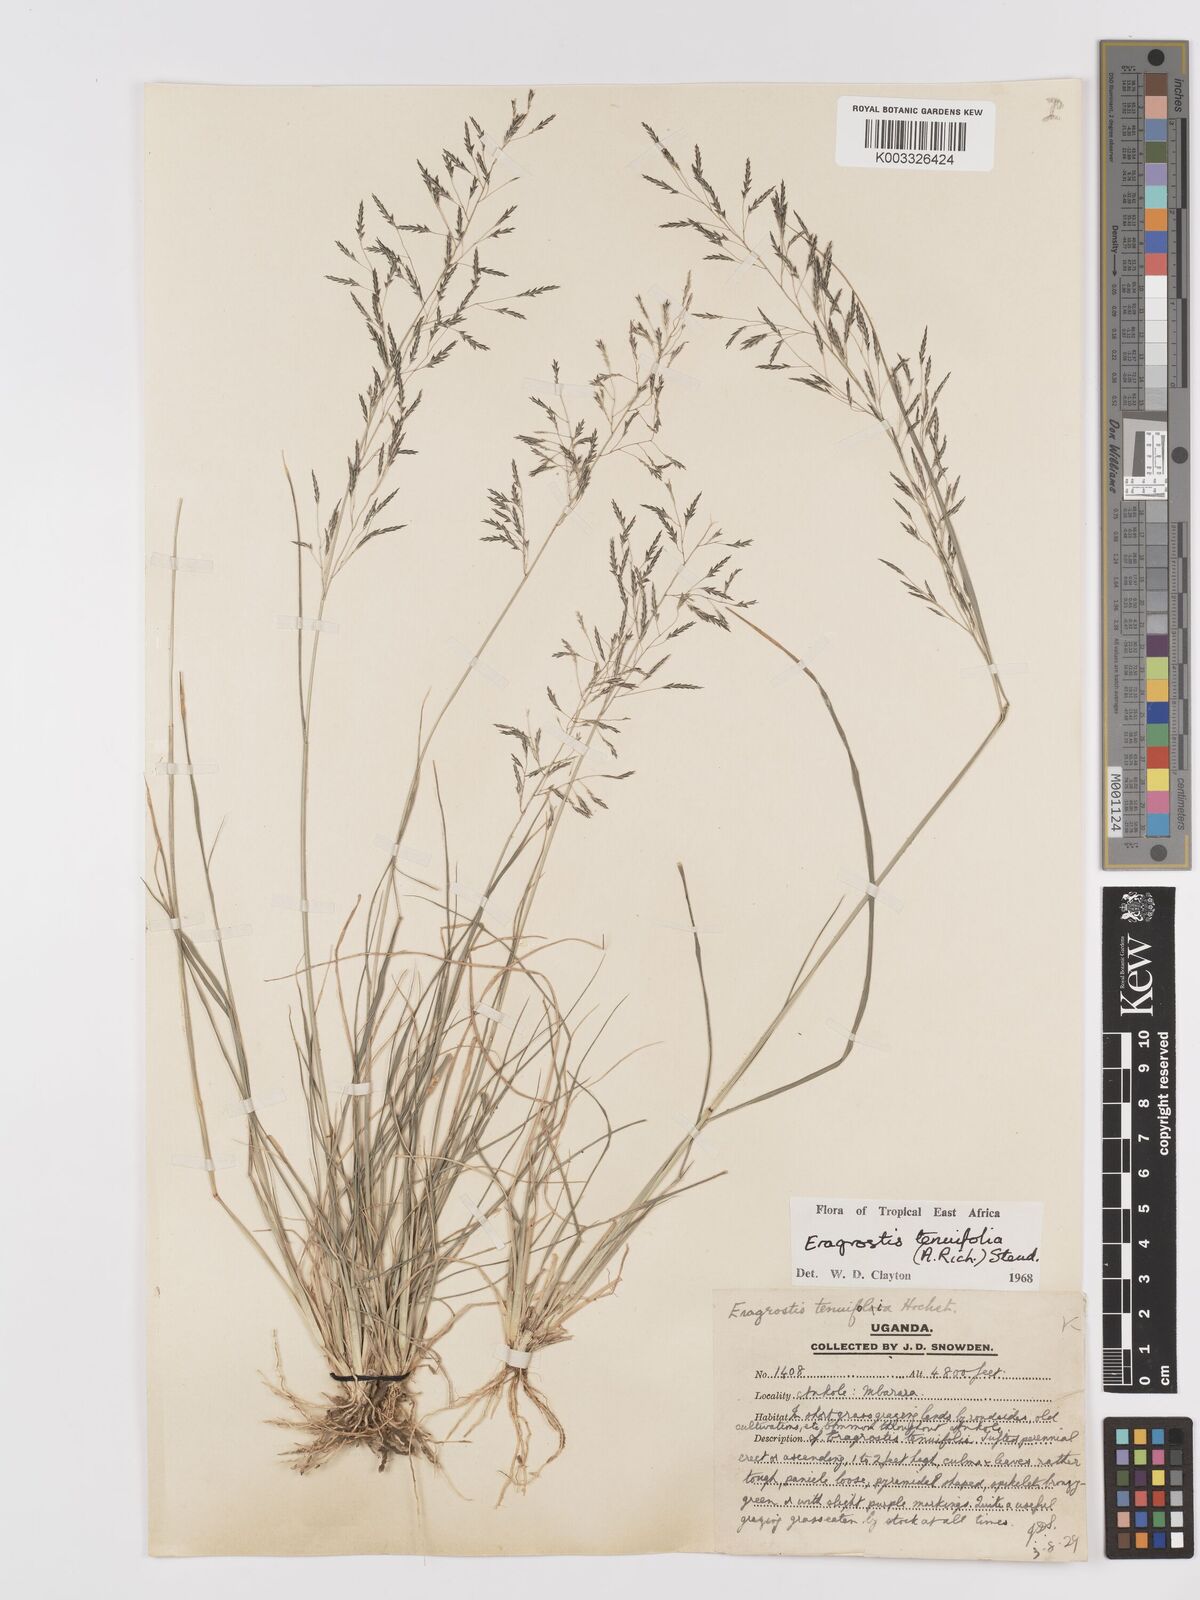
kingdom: Plantae
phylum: Tracheophyta
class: Liliopsida
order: Poales
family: Poaceae
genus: Eragrostis
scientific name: Eragrostis tenuifolia
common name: Elastic grass
